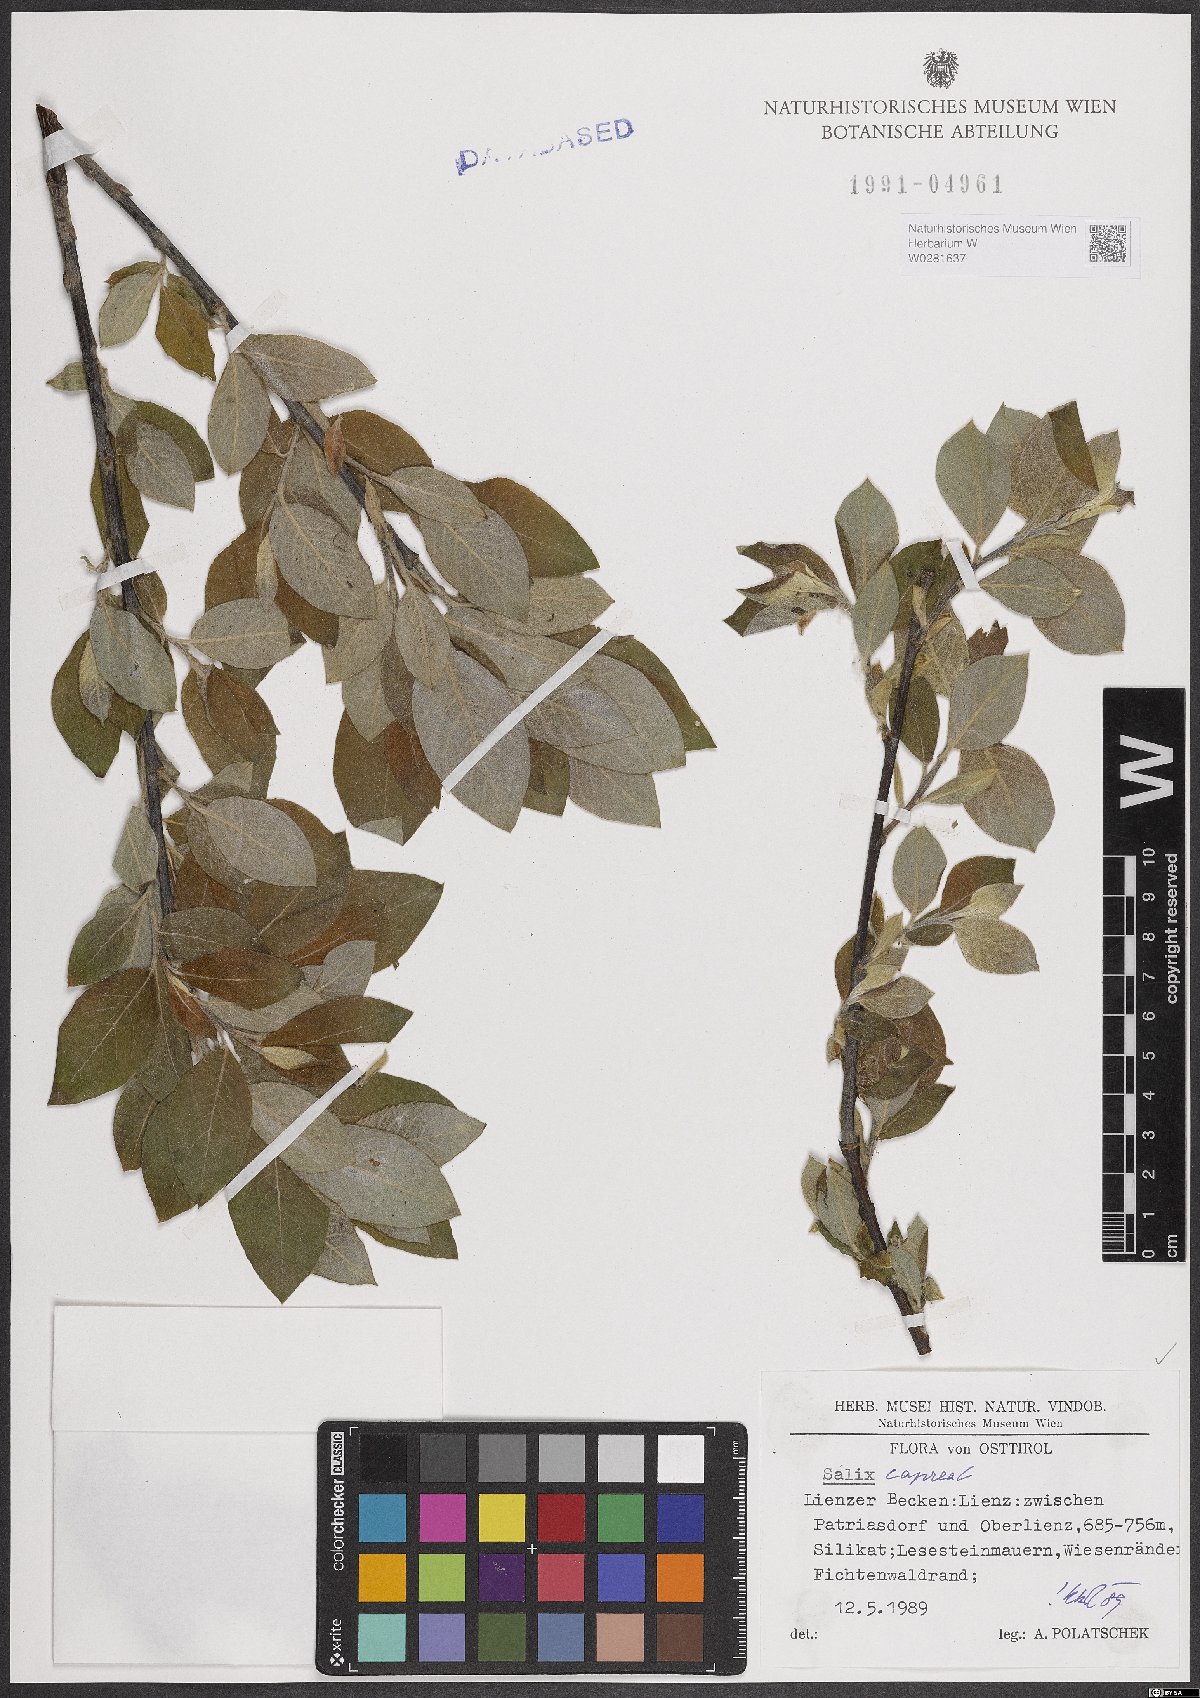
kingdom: Plantae
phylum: Tracheophyta
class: Magnoliopsida
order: Malpighiales
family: Salicaceae
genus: Salix
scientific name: Salix caprea
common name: Goat willow
